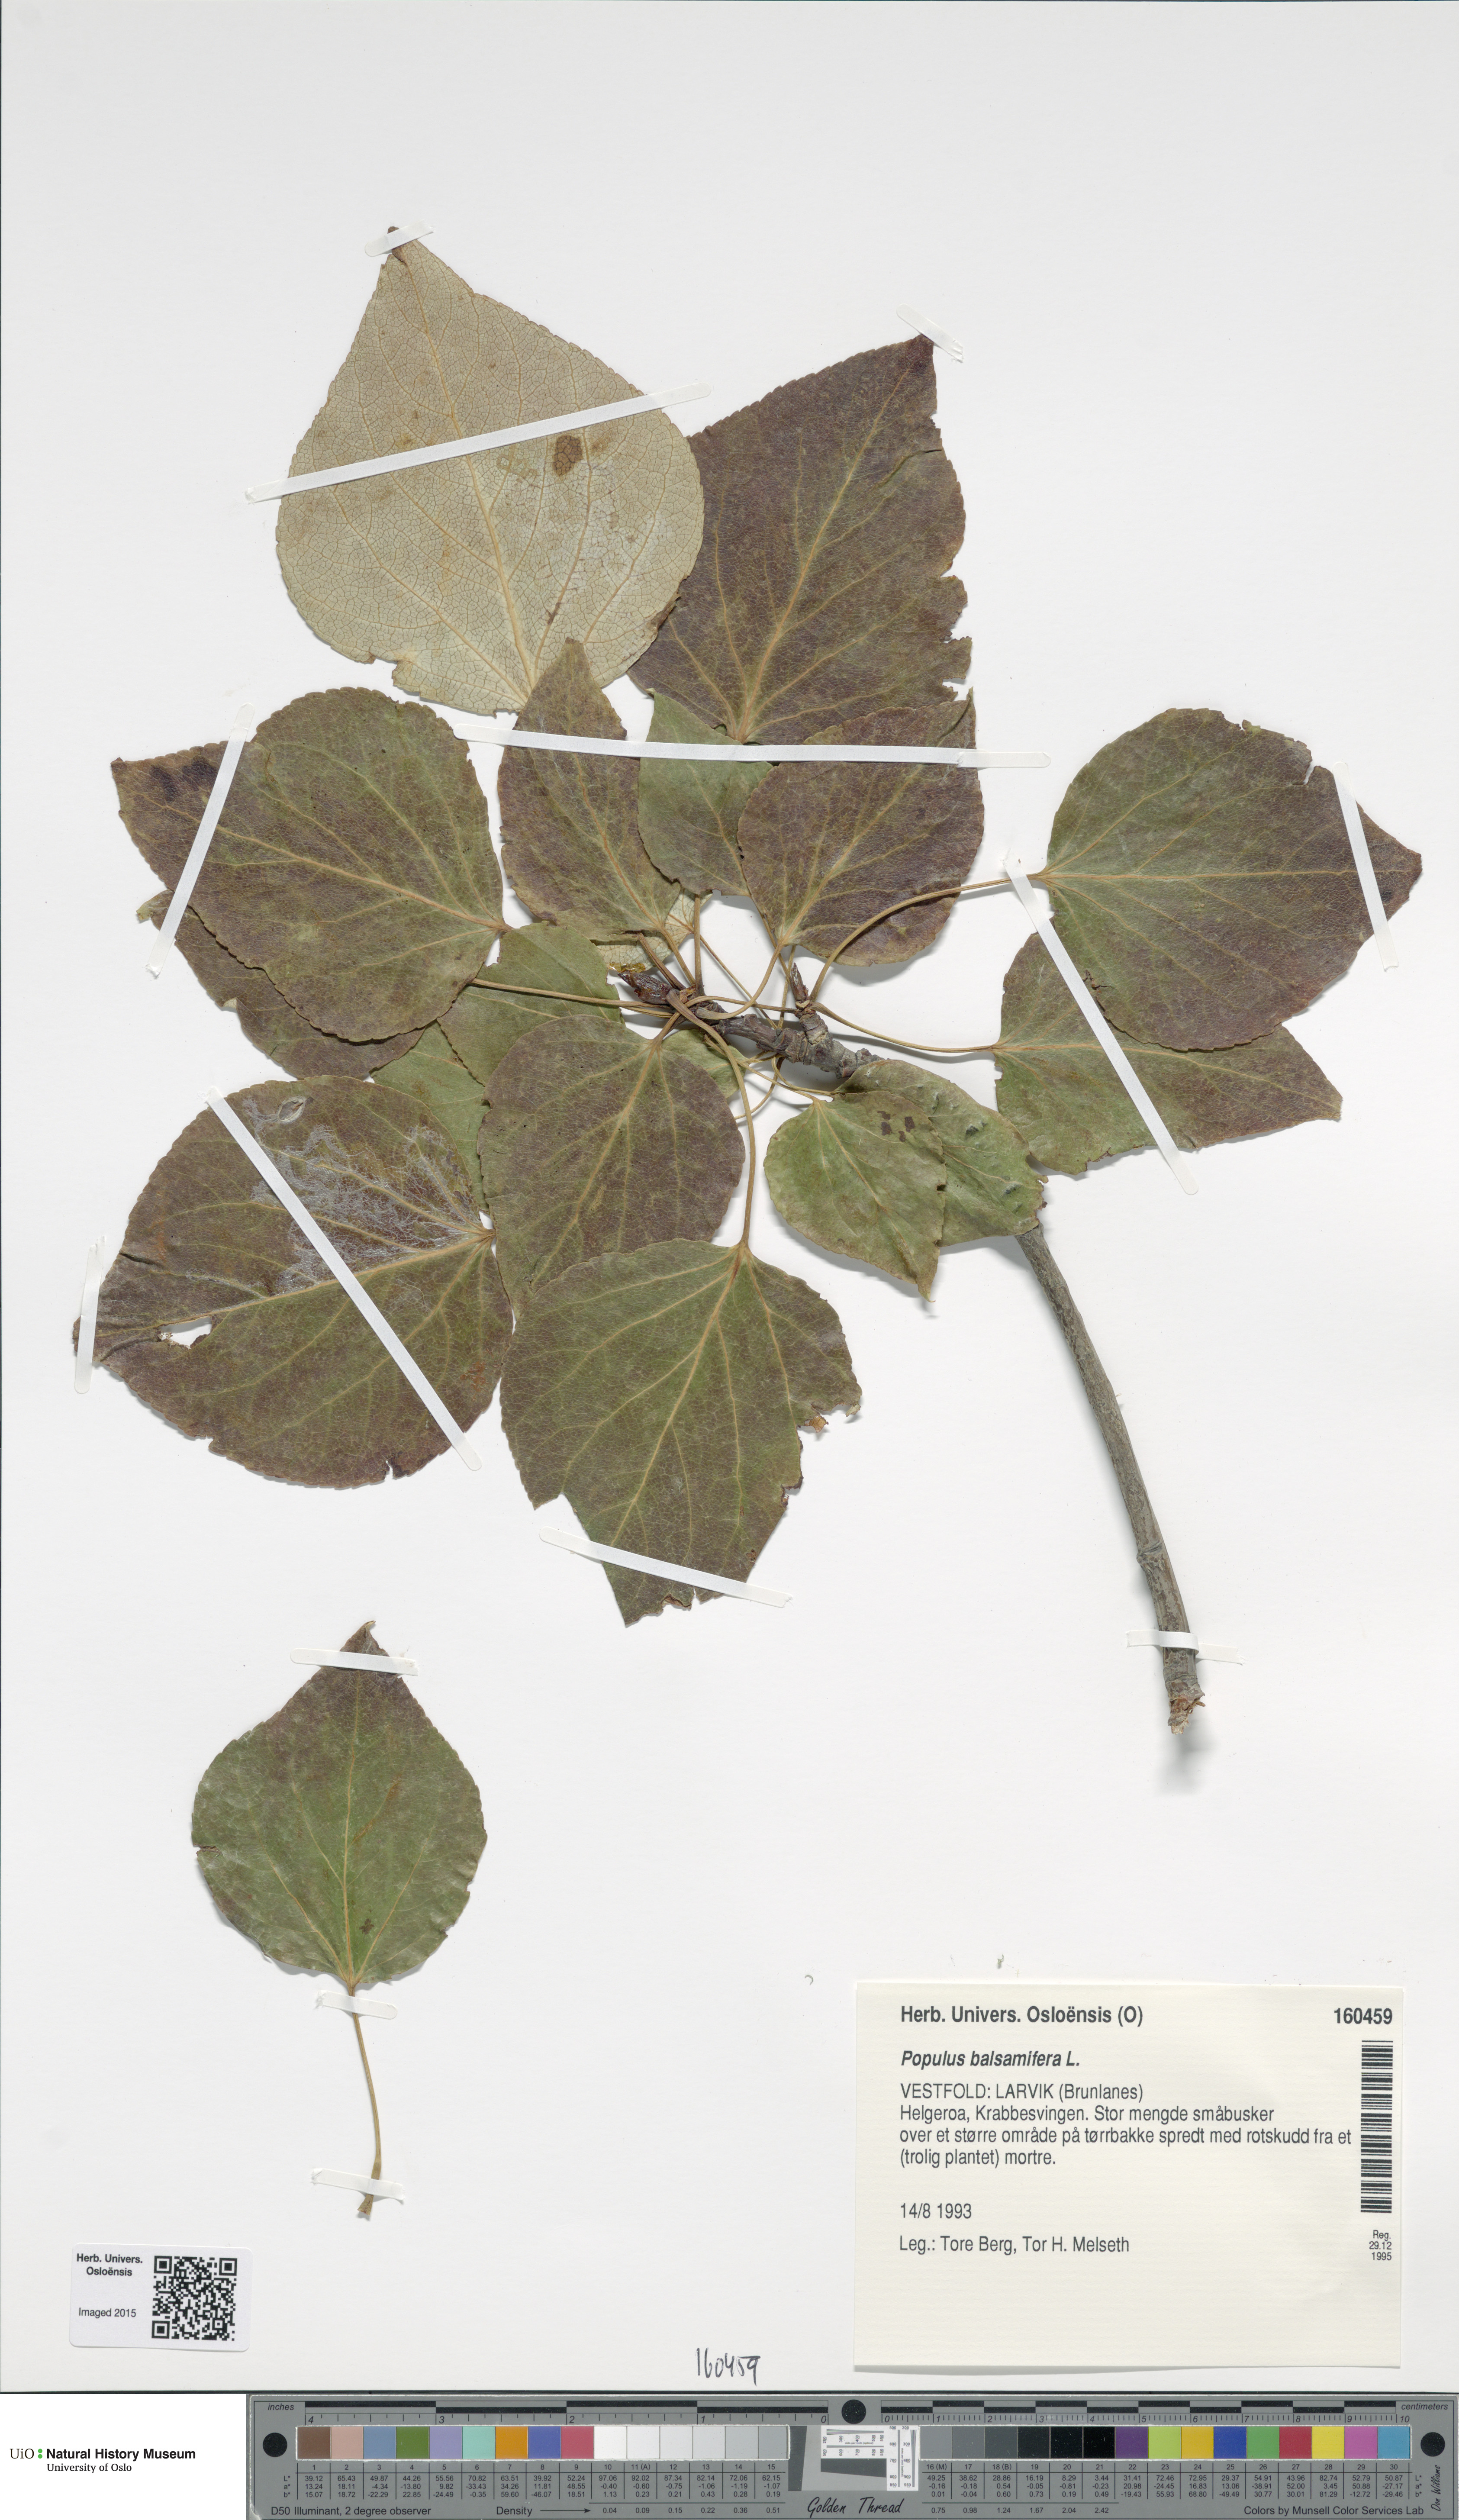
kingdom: Plantae
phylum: Tracheophyta
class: Magnoliopsida
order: Malpighiales
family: Salicaceae
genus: Populus
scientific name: Populus balsamifera
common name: Balsam poplar
